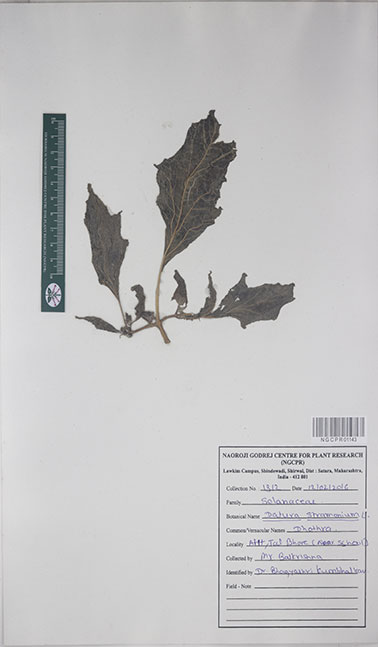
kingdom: Plantae
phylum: Tracheophyta
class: Magnoliopsida
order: Solanales
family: Solanaceae
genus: Datura
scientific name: Datura stramonium
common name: Thorn-apple
